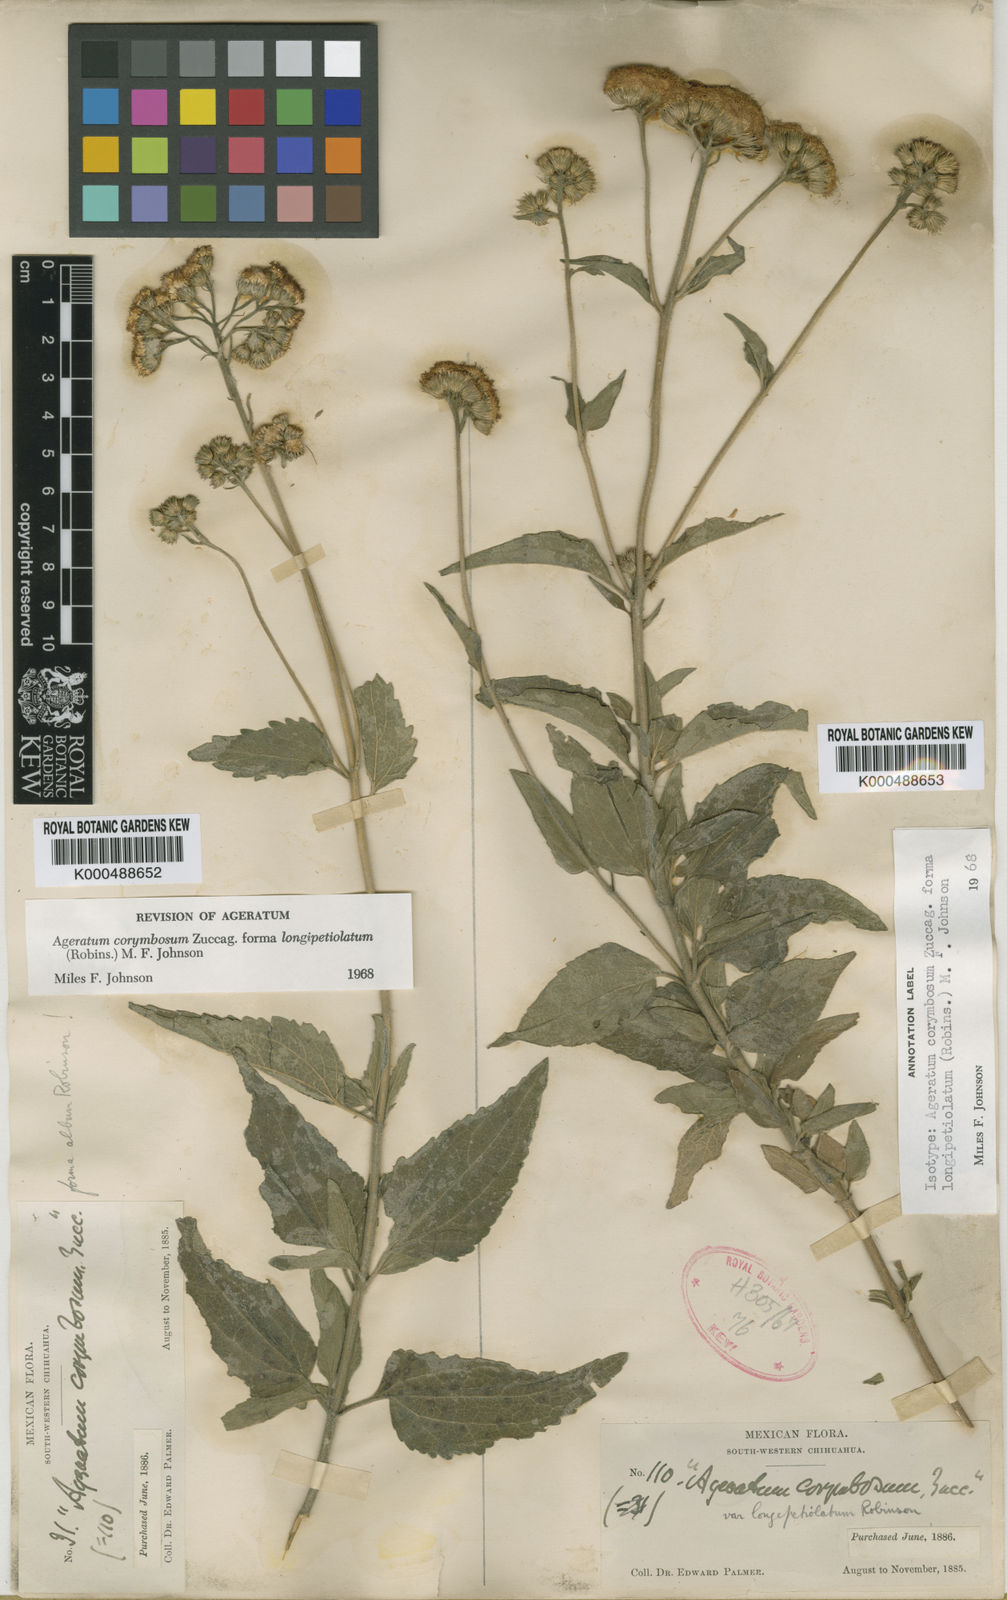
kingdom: Plantae
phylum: Tracheophyta
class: Magnoliopsida
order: Asterales
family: Asteraceae
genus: Ageratum
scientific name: Ageratum corymbosum
